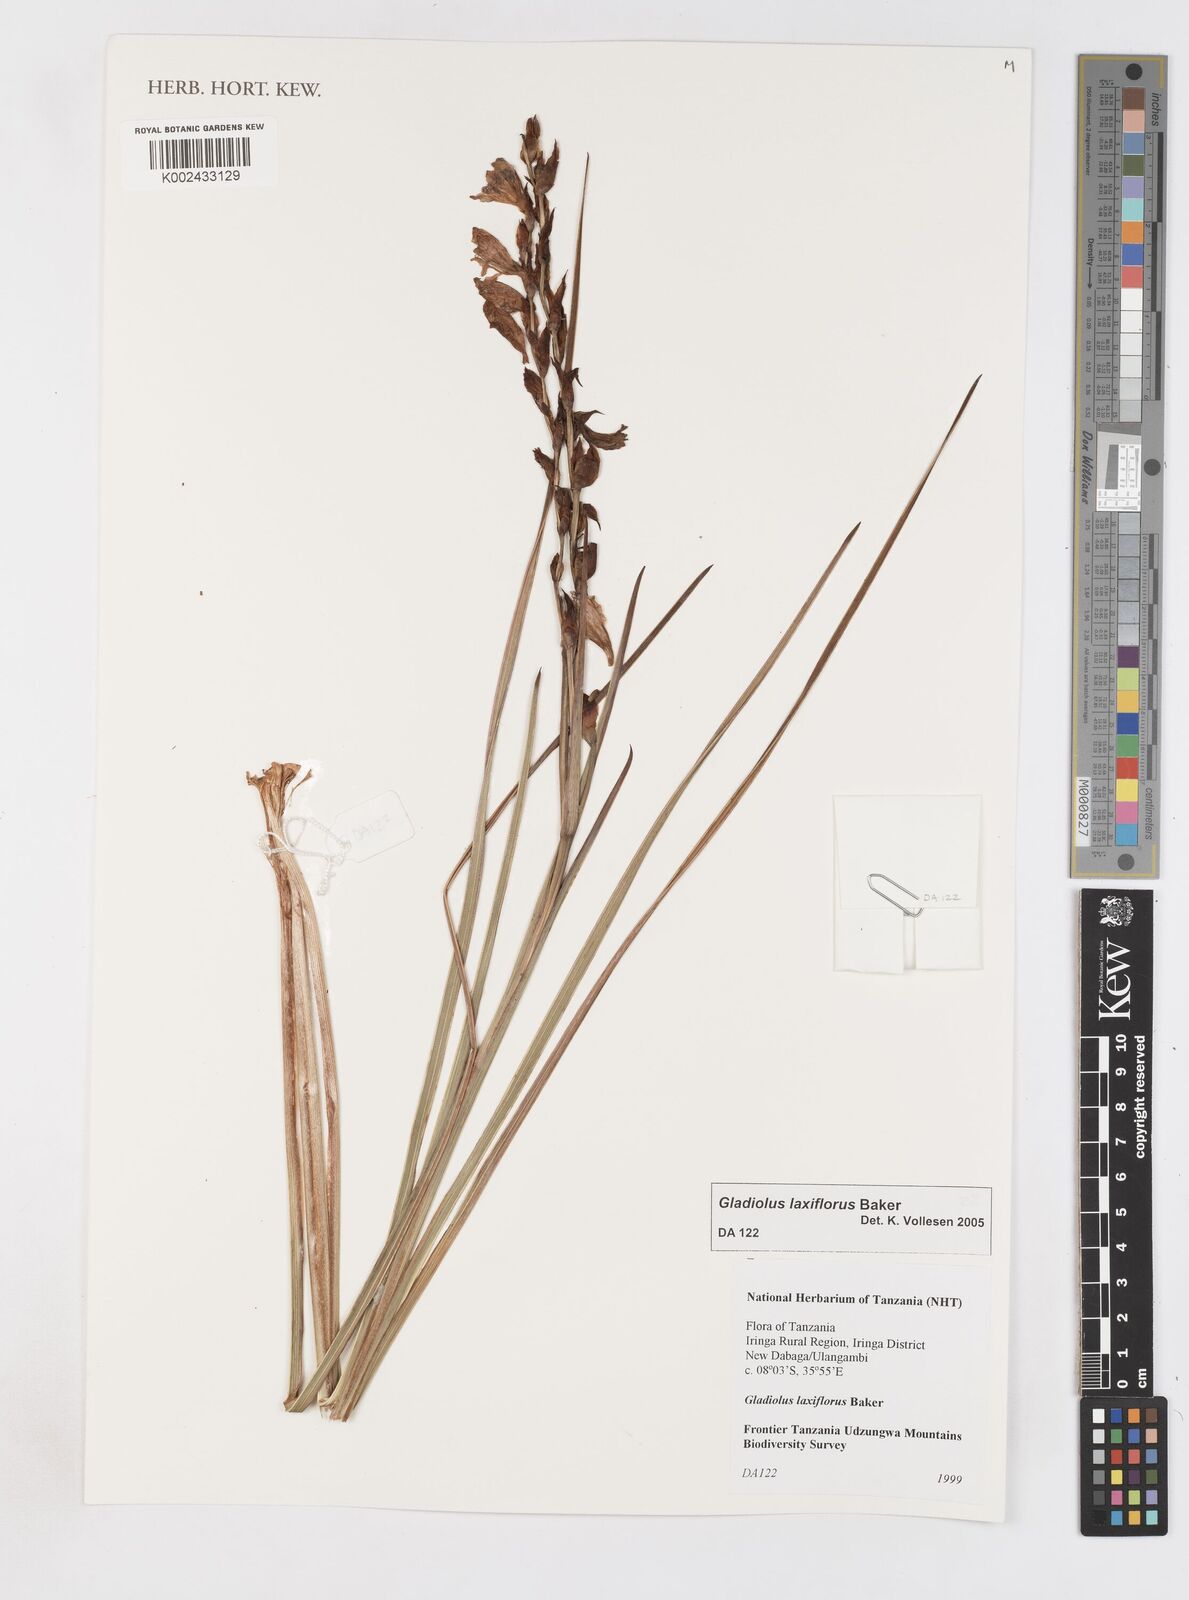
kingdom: Plantae
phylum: Tracheophyta
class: Liliopsida
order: Asparagales
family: Iridaceae
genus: Gladiolus
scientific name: Gladiolus laxiflorus
